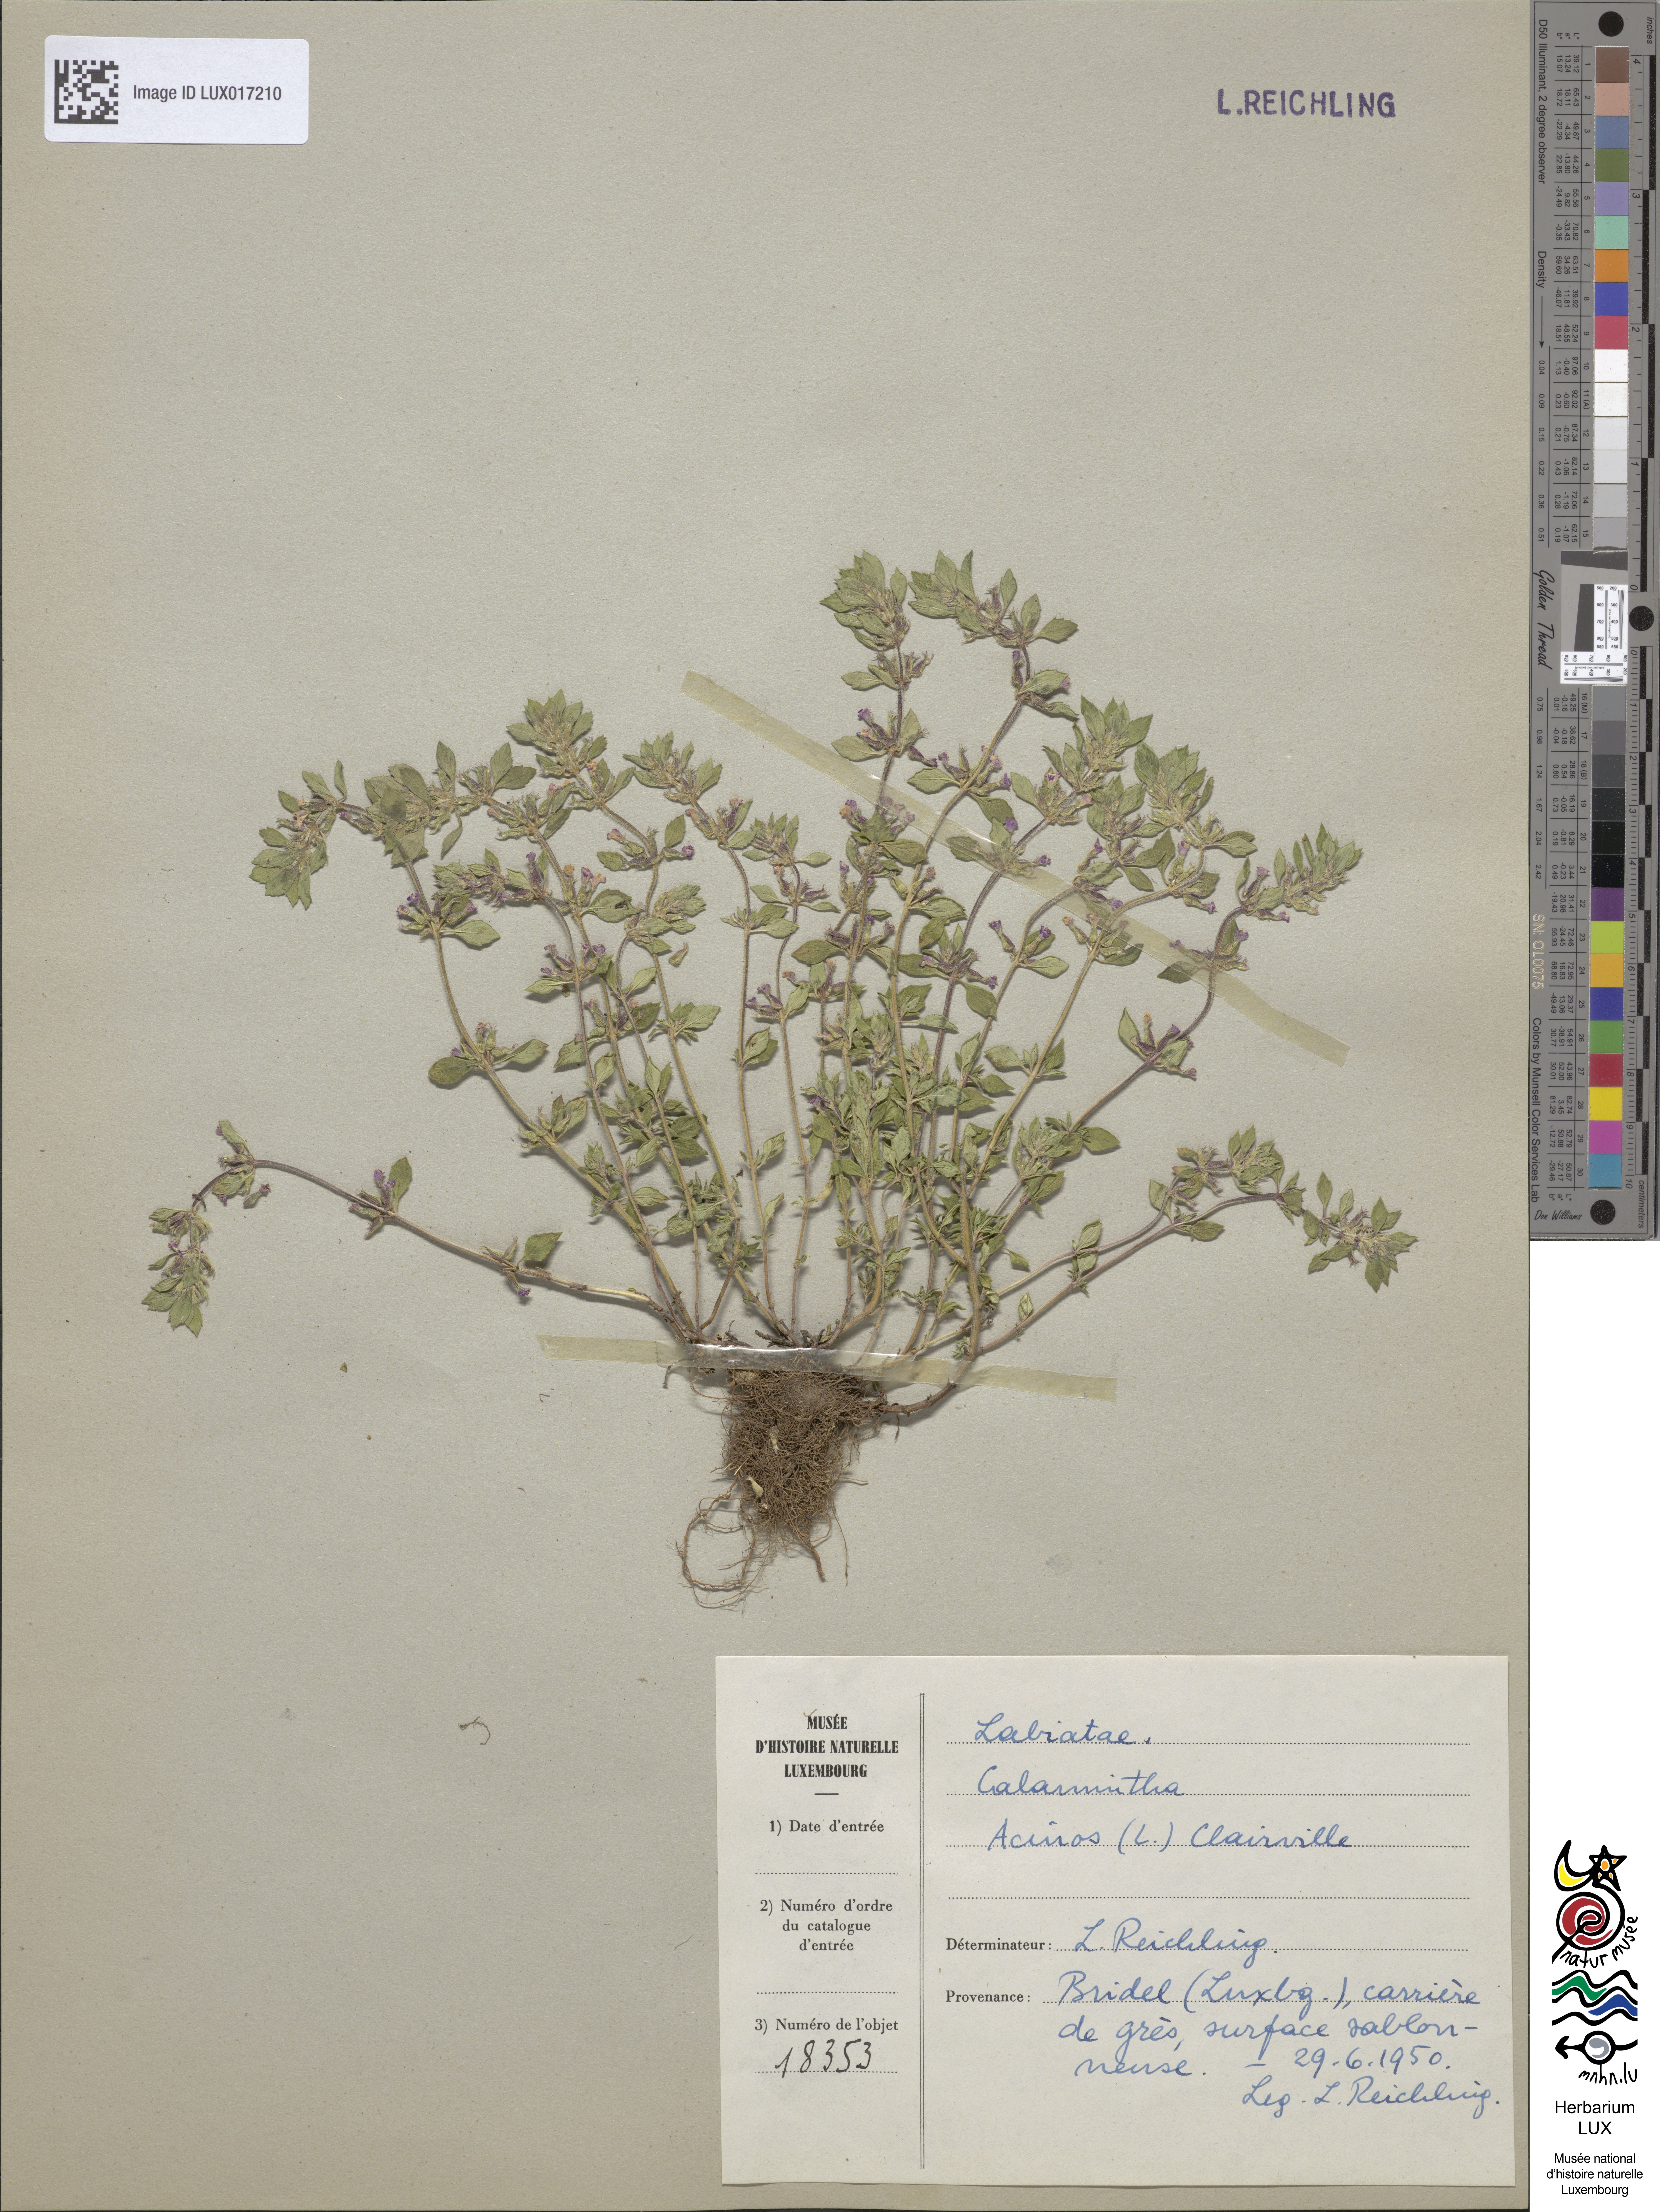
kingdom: Plantae
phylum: Tracheophyta
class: Magnoliopsida
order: Lamiales
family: Lamiaceae
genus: Clinopodium
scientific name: Clinopodium acinos
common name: Basil thyme
